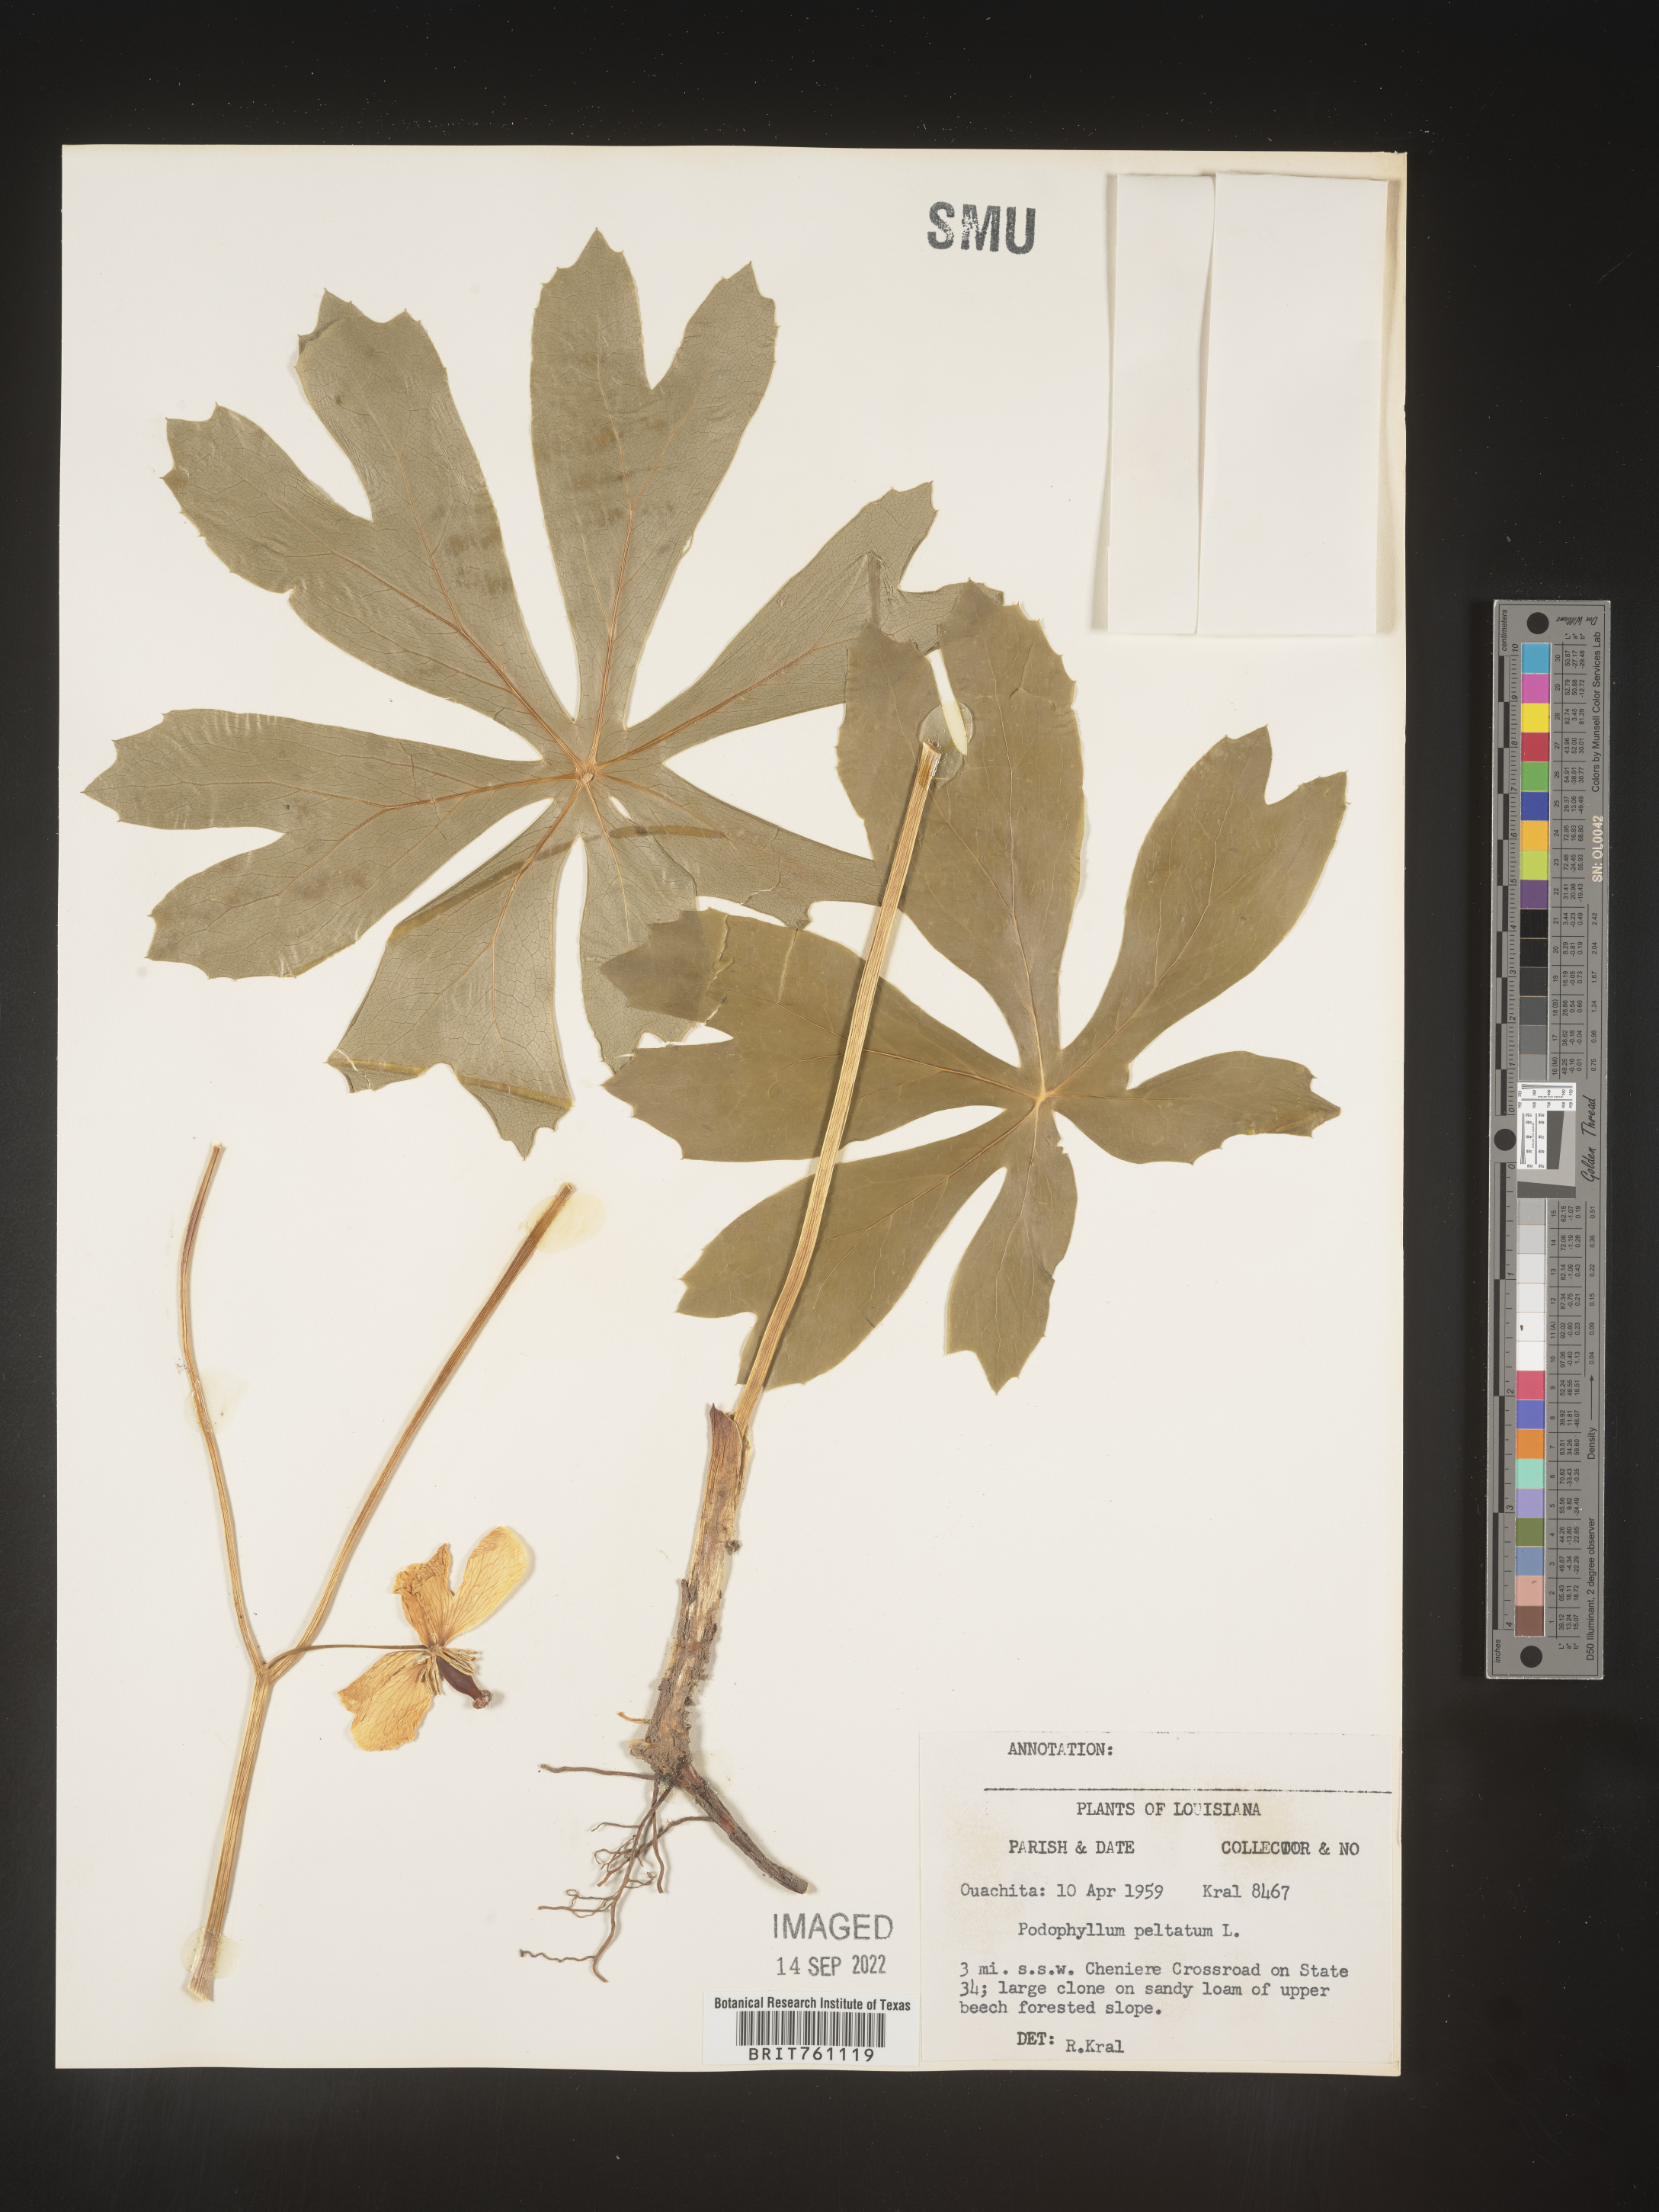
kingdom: Plantae
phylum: Tracheophyta
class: Magnoliopsida
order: Ranunculales
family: Berberidaceae
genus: Podophyllum
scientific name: Podophyllum peltatum
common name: Wild mandrake
